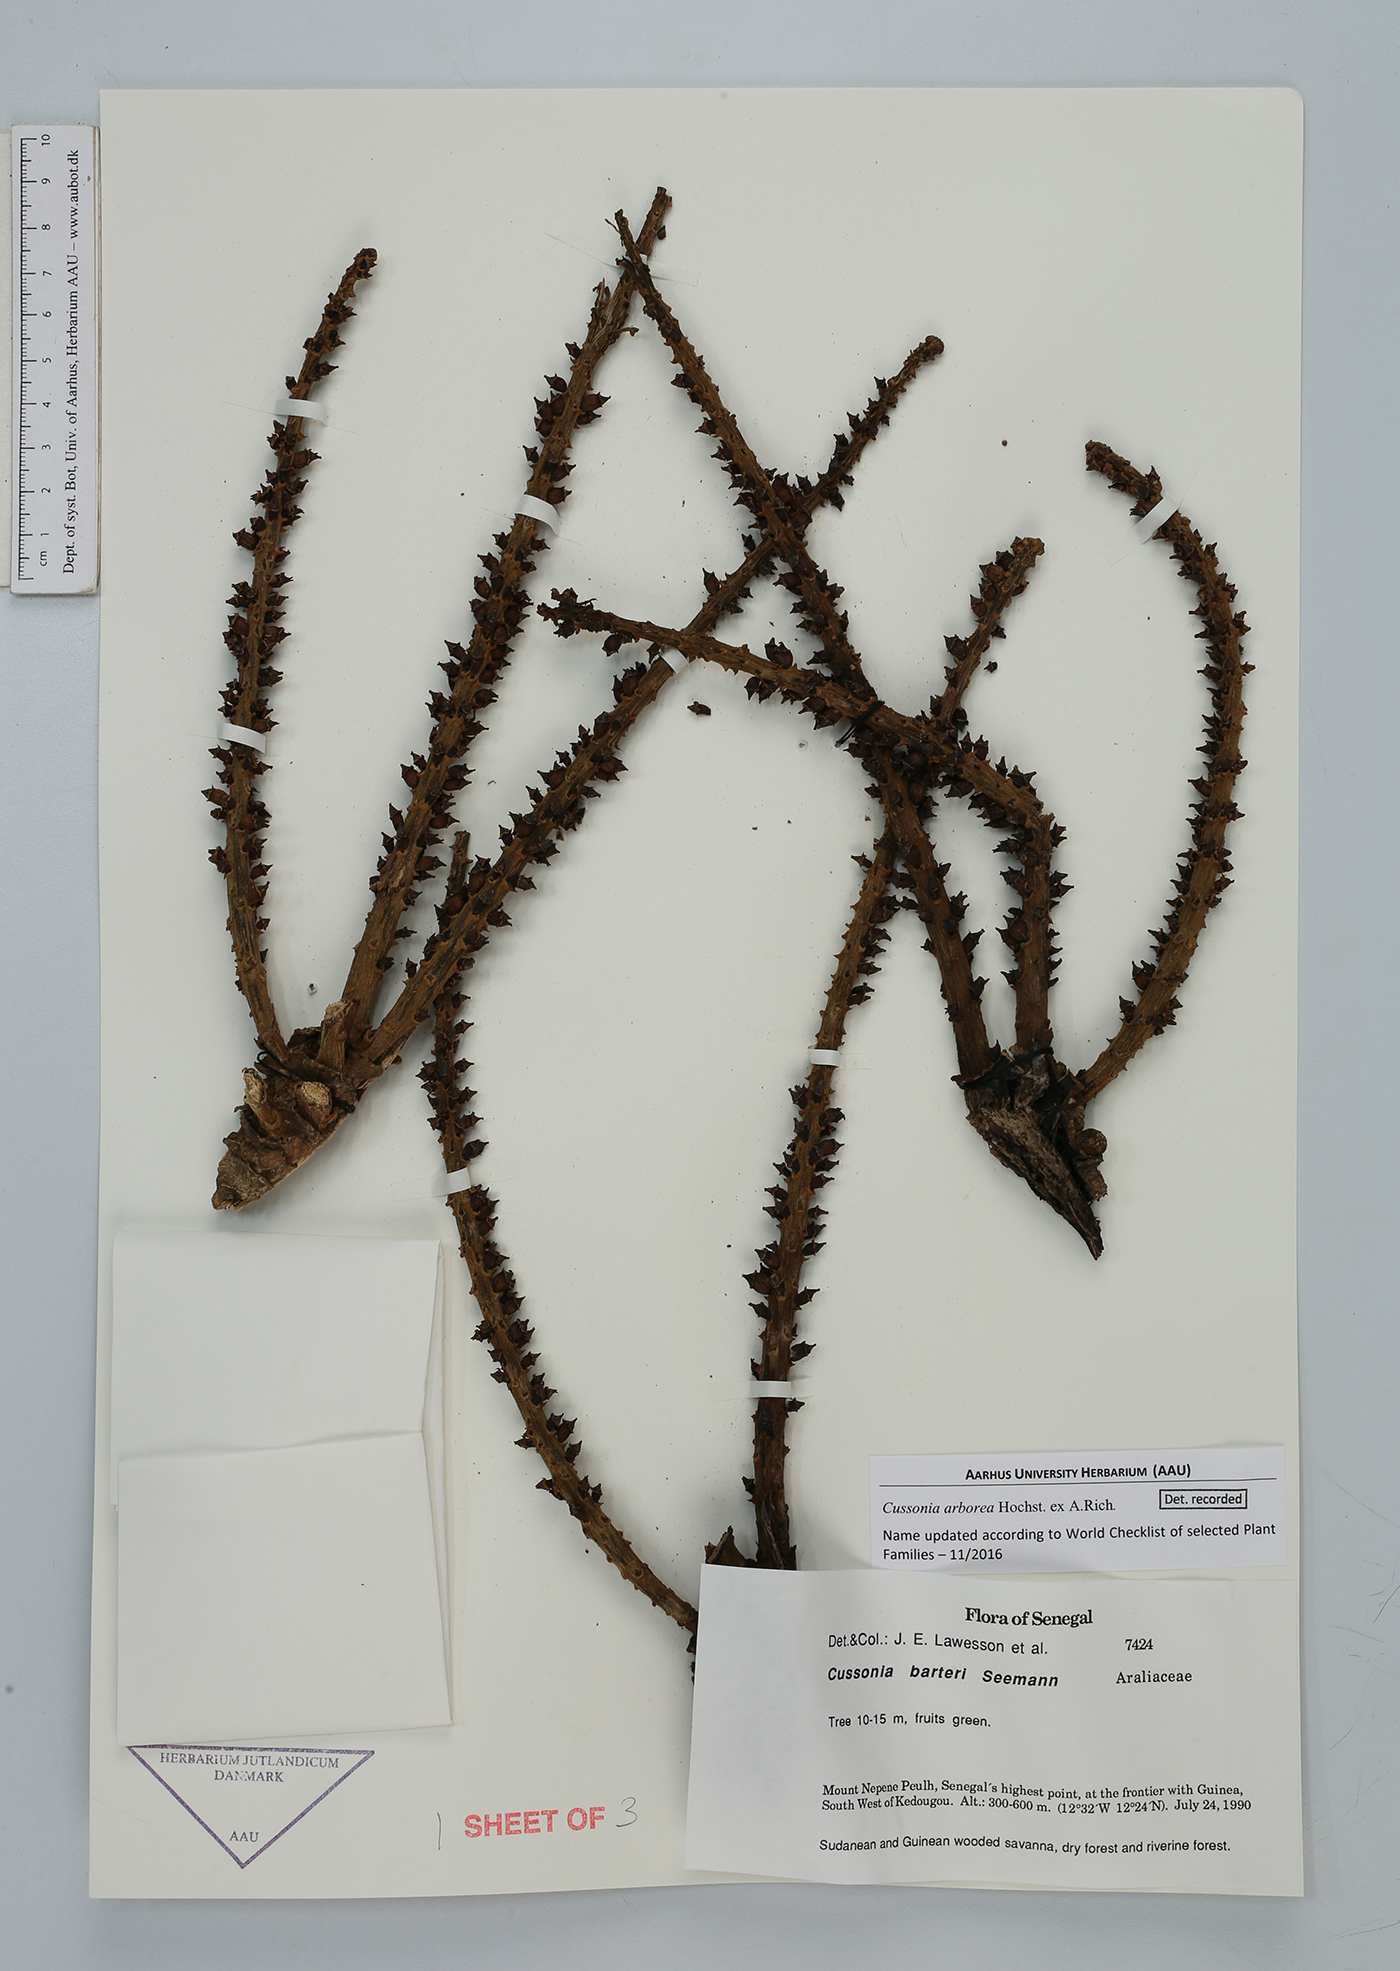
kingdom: Plantae
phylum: Tracheophyta
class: Magnoliopsida
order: Apiales
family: Araliaceae
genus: Cussonia
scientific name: Cussonia arborea
